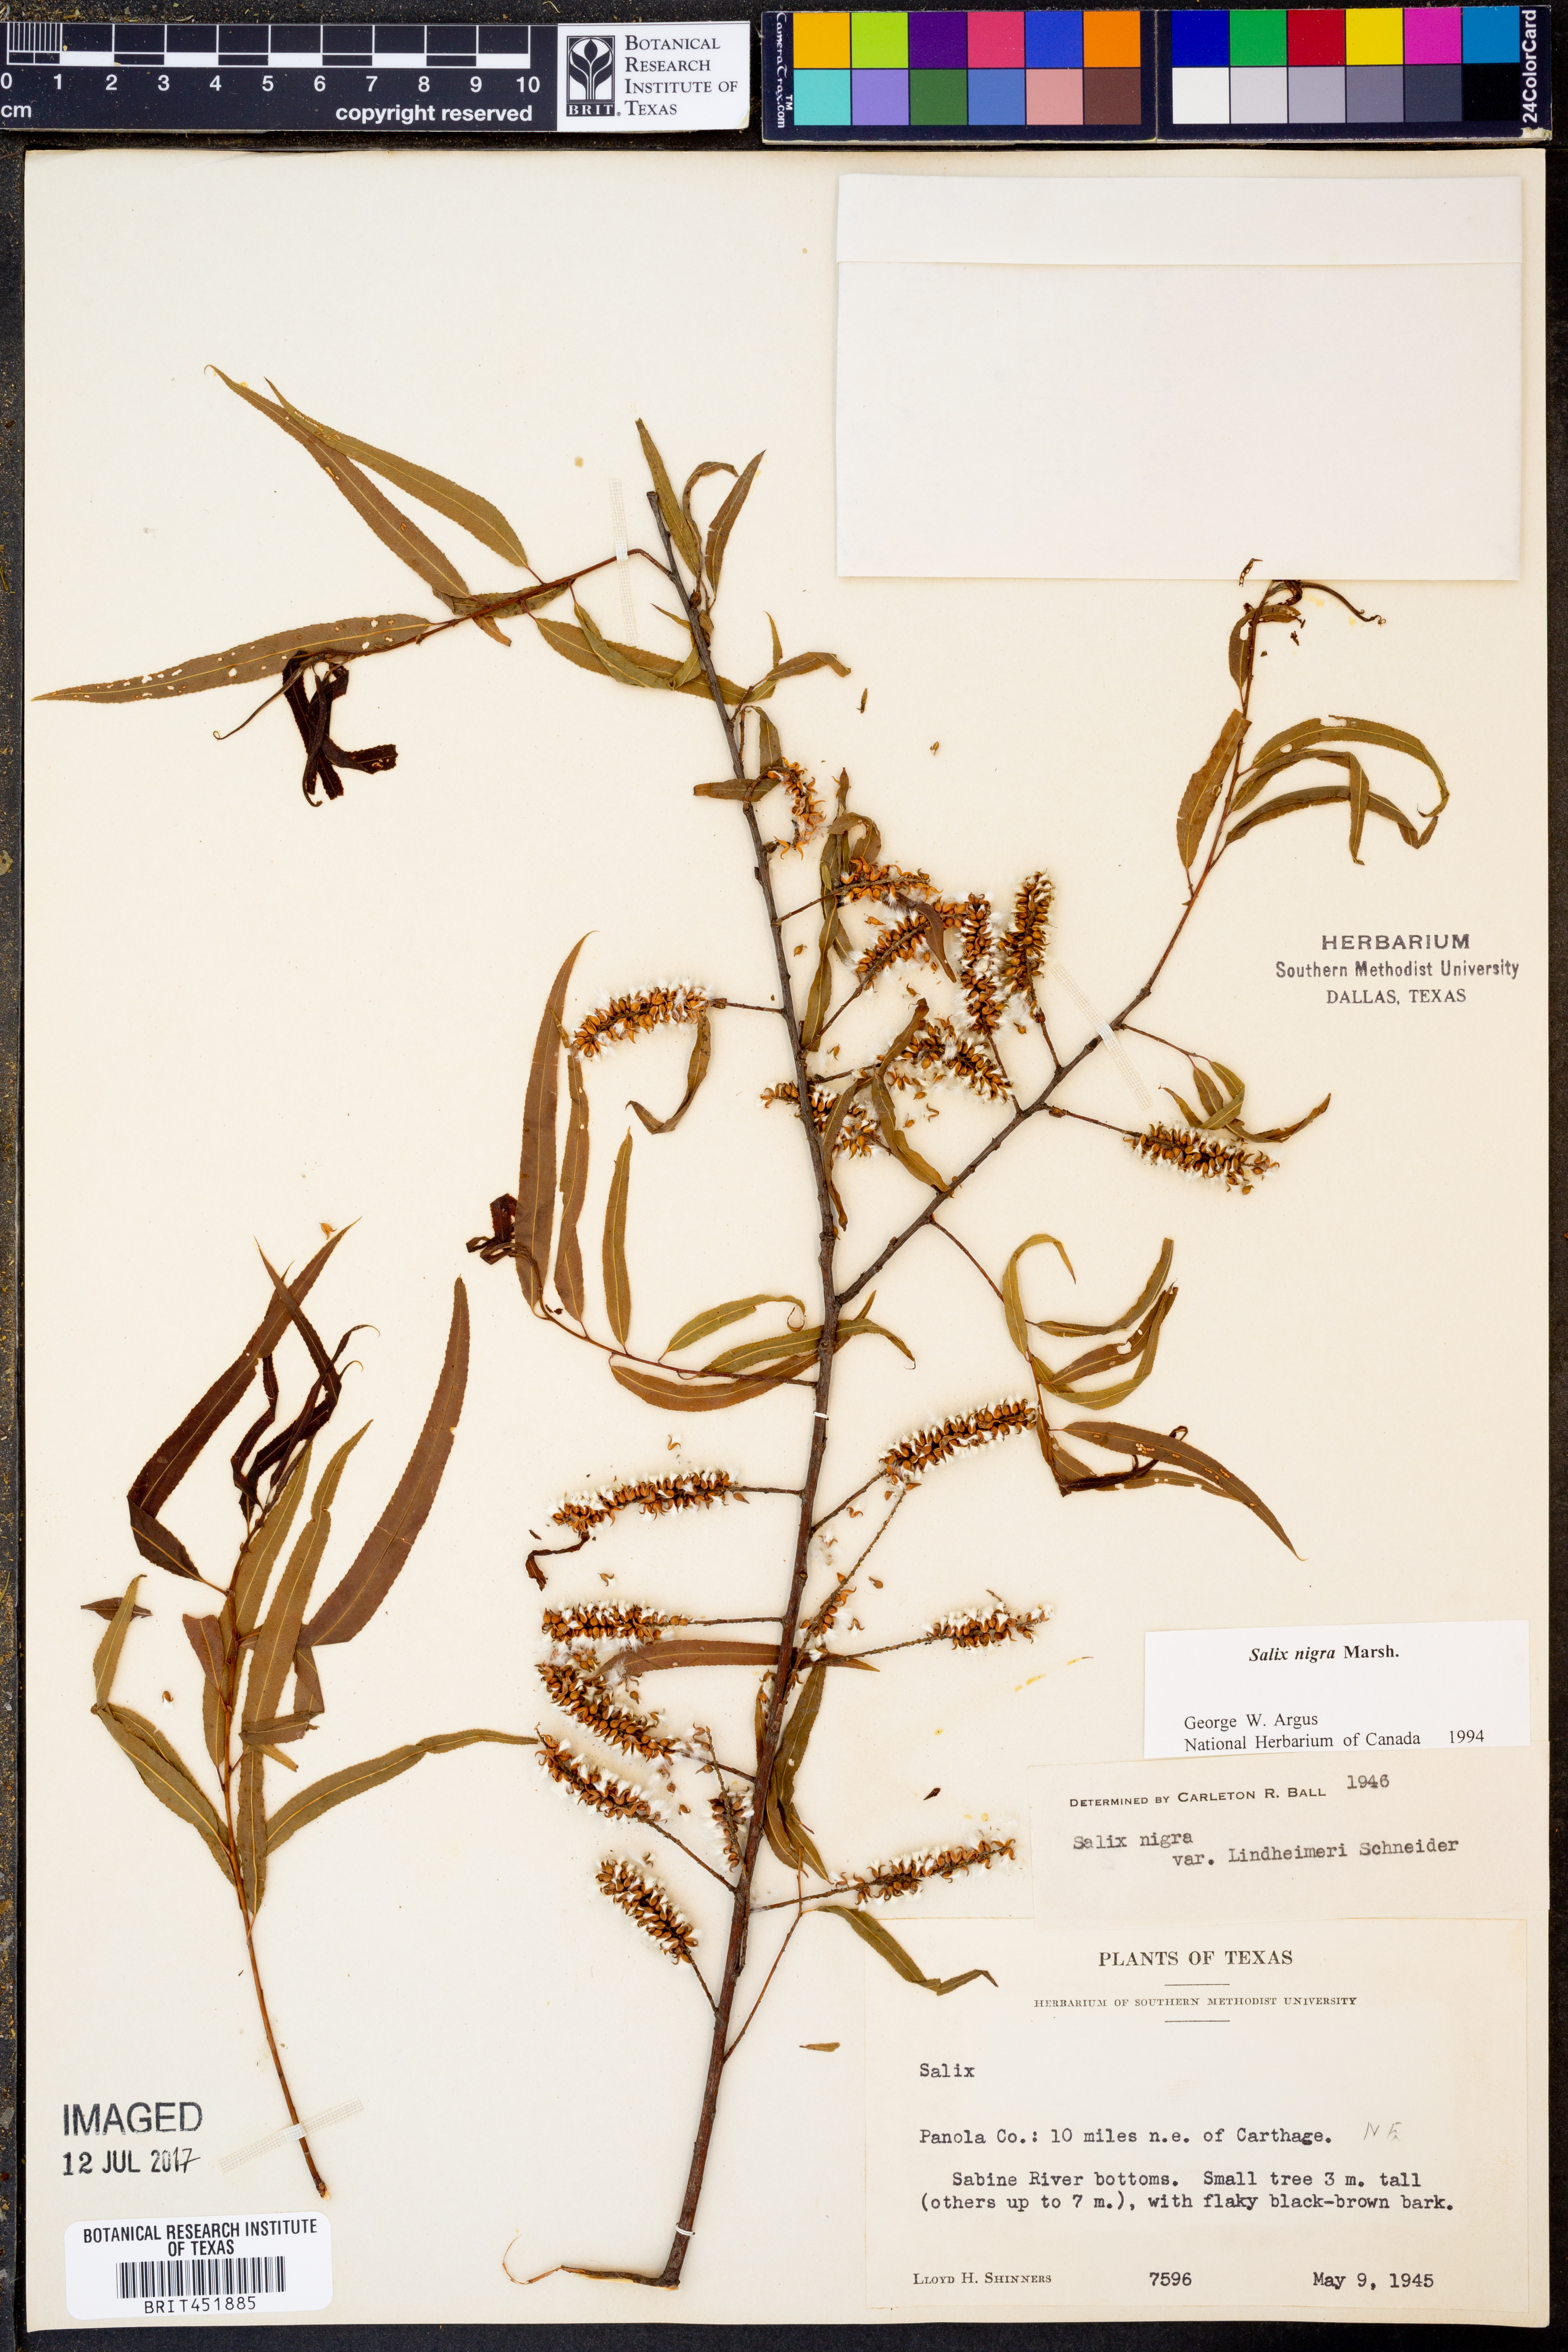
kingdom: Plantae
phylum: Tracheophyta
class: Magnoliopsida
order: Malpighiales
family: Salicaceae
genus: Salix
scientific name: Salix nigra
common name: Black willow
